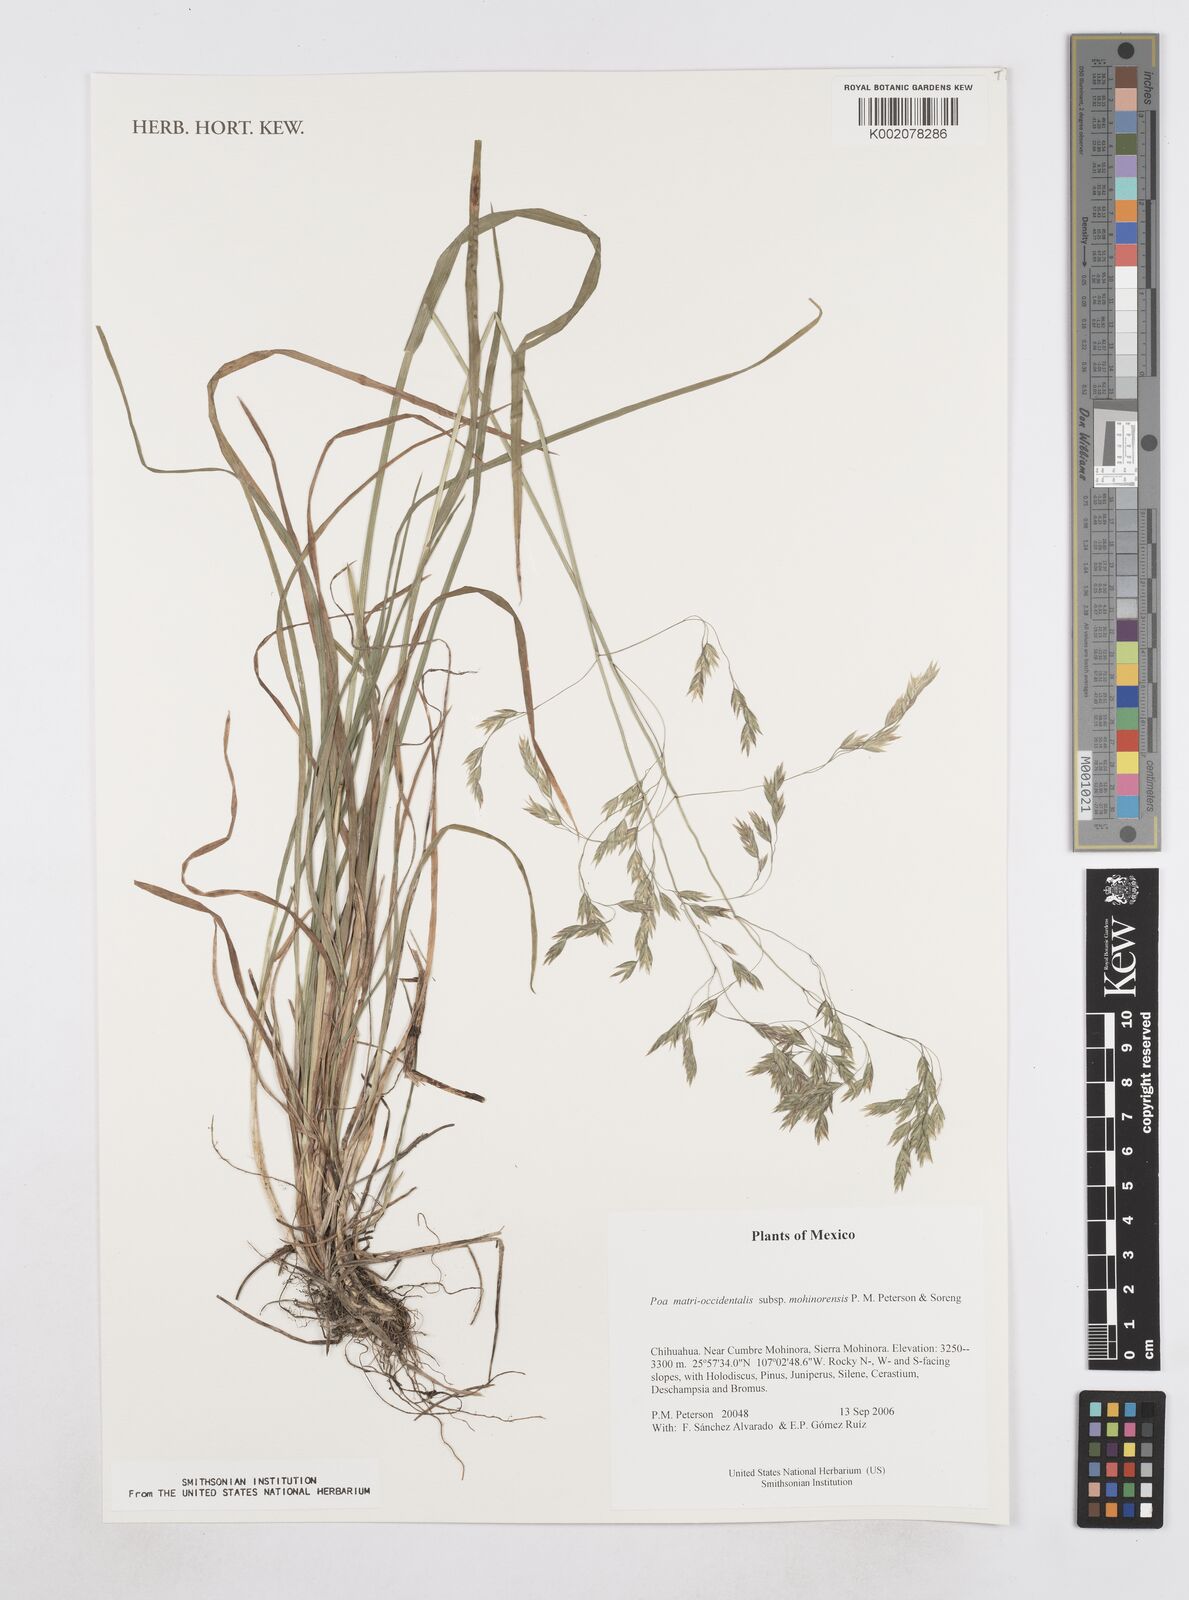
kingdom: Plantae
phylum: Tracheophyta
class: Liliopsida
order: Poales
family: Poaceae
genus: Poa
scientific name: Poa matris-occidentalis
